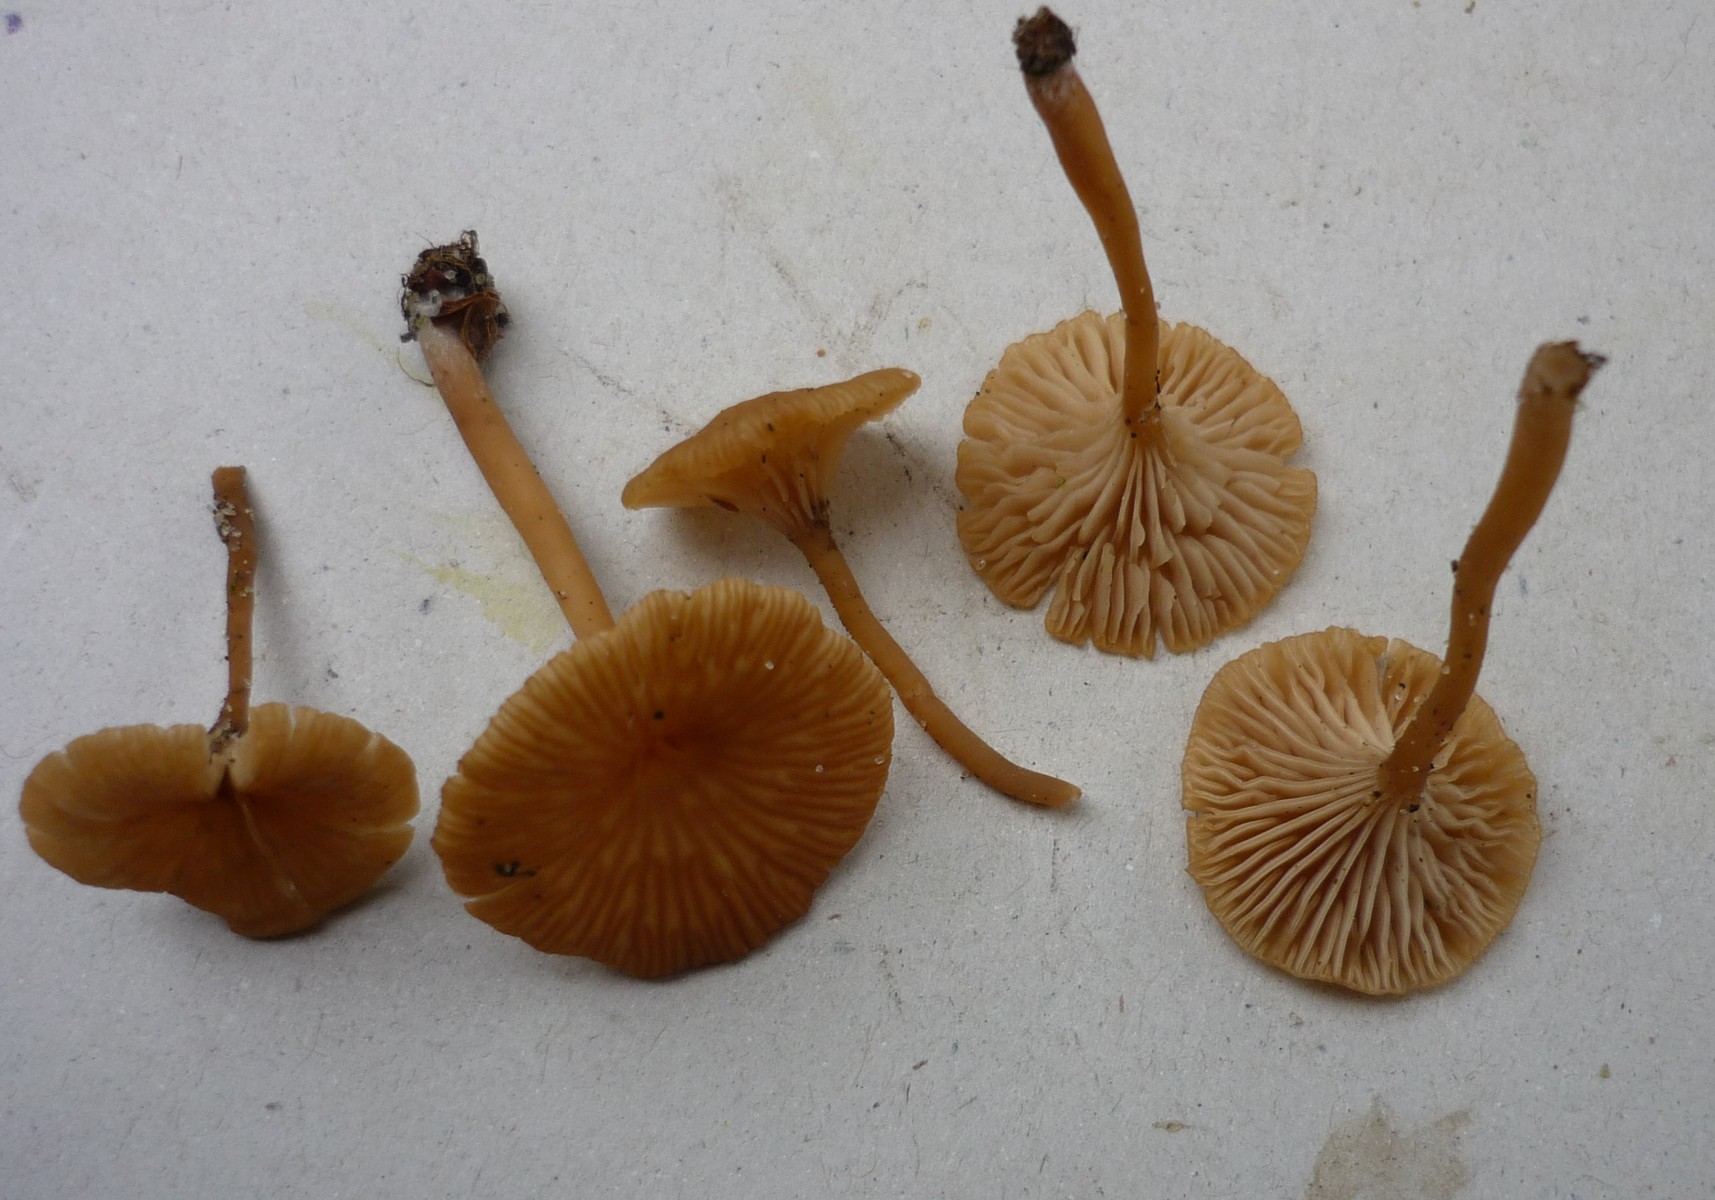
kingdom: Fungi
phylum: Basidiomycota
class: Agaricomycetes
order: Agaricales
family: Tricholomataceae
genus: Omphalina
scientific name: Omphalina pyxidata
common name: rødbrun navlehat
